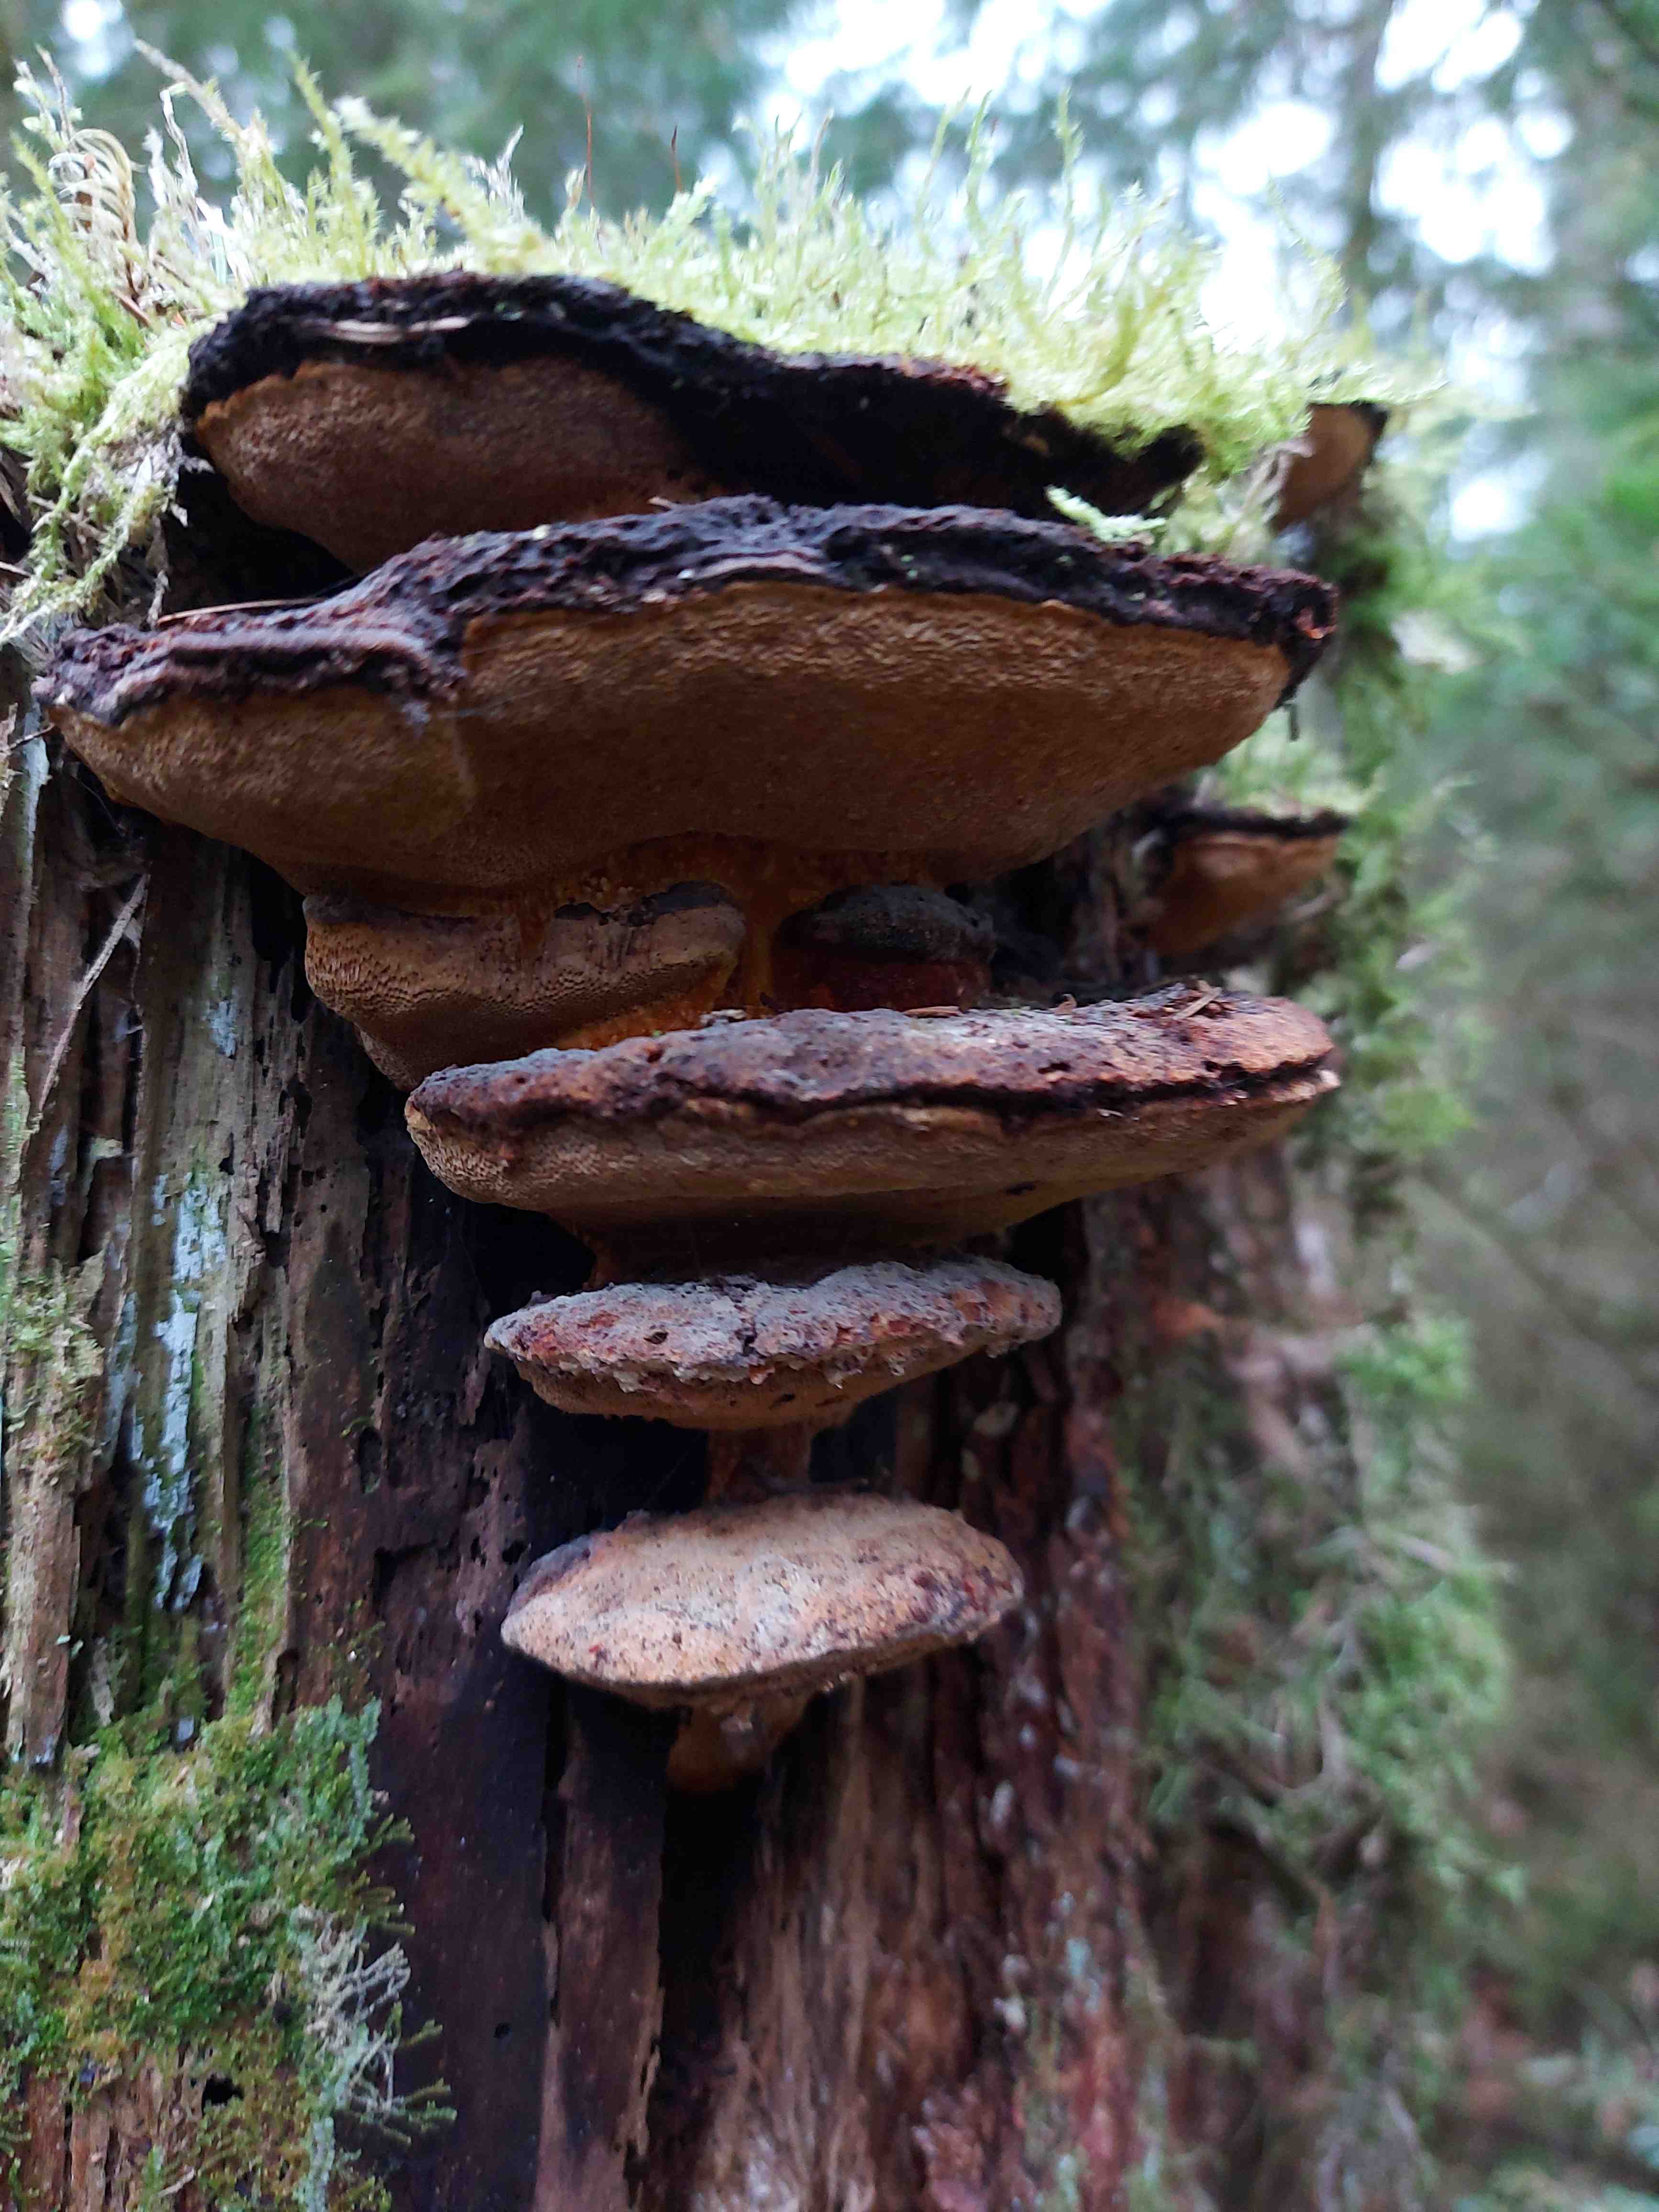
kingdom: Fungi
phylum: Basidiomycota
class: Agaricomycetes
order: Polyporales
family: Ischnodermataceae
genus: Ischnoderma
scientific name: Ischnoderma benzoinum
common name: gran-tjæreporesvamp
